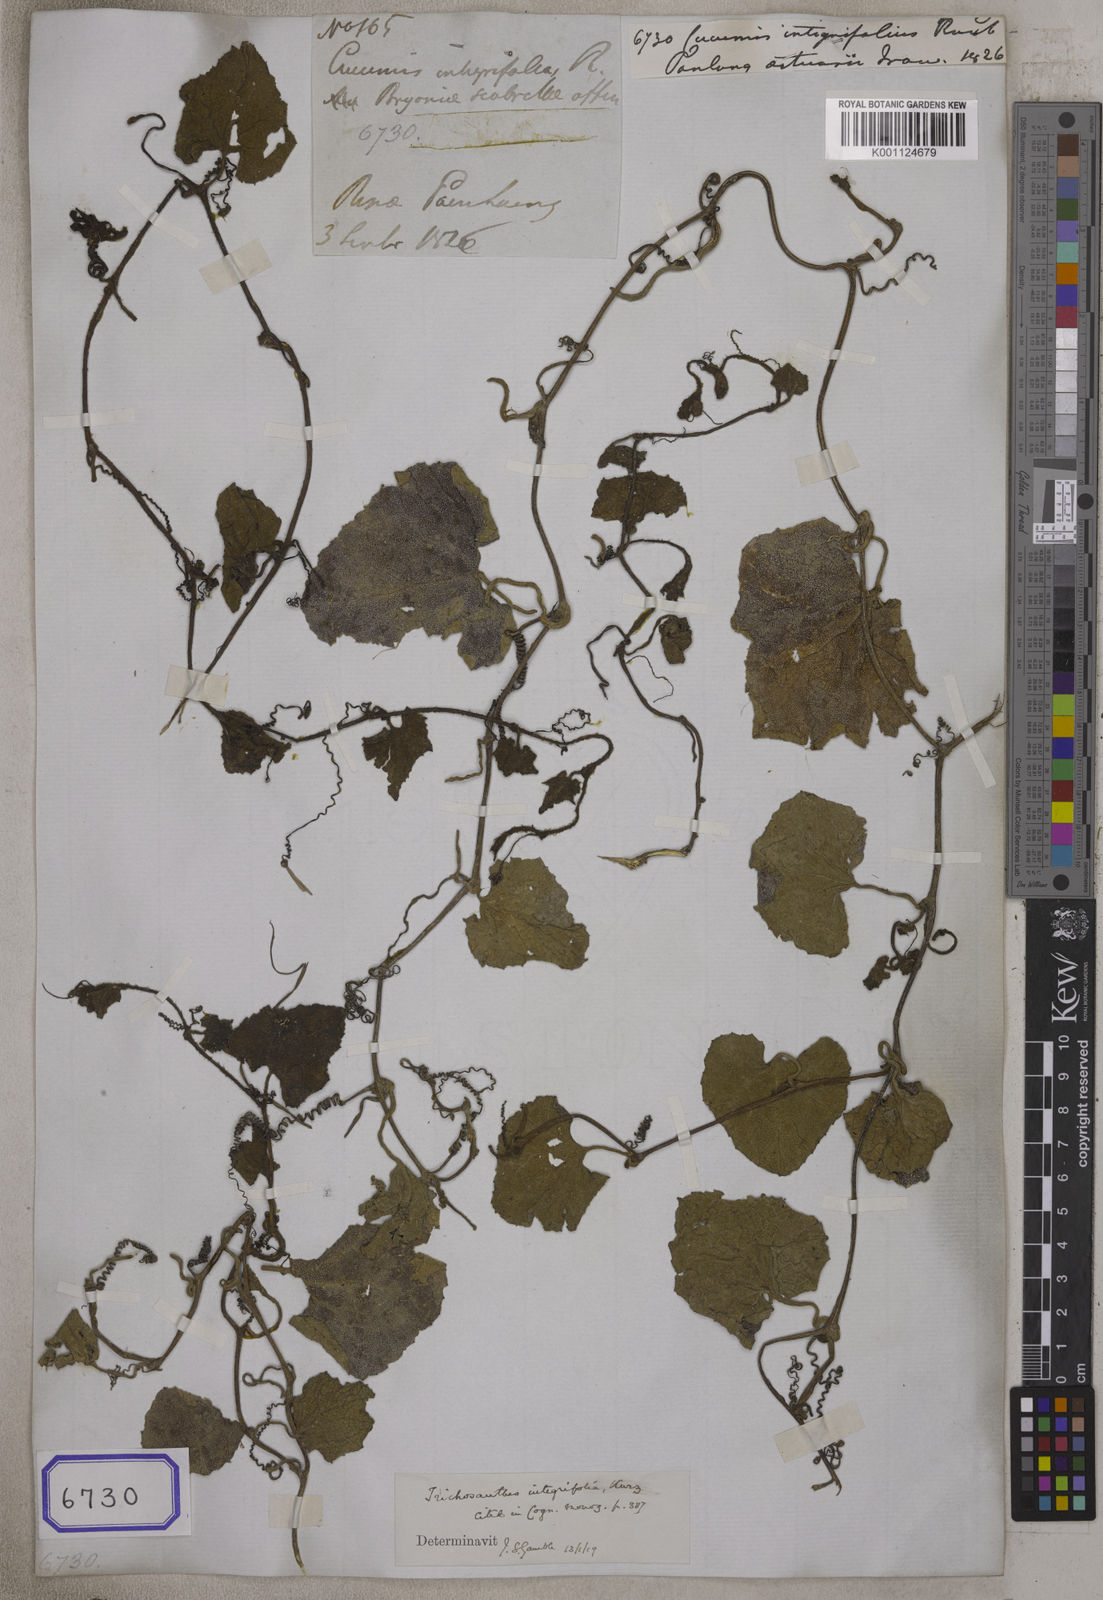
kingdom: Plantae
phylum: Tracheophyta
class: Magnoliopsida
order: Cucurbitales
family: Cucurbitaceae
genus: Trichosanthes
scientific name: Trichosanthes scabra
